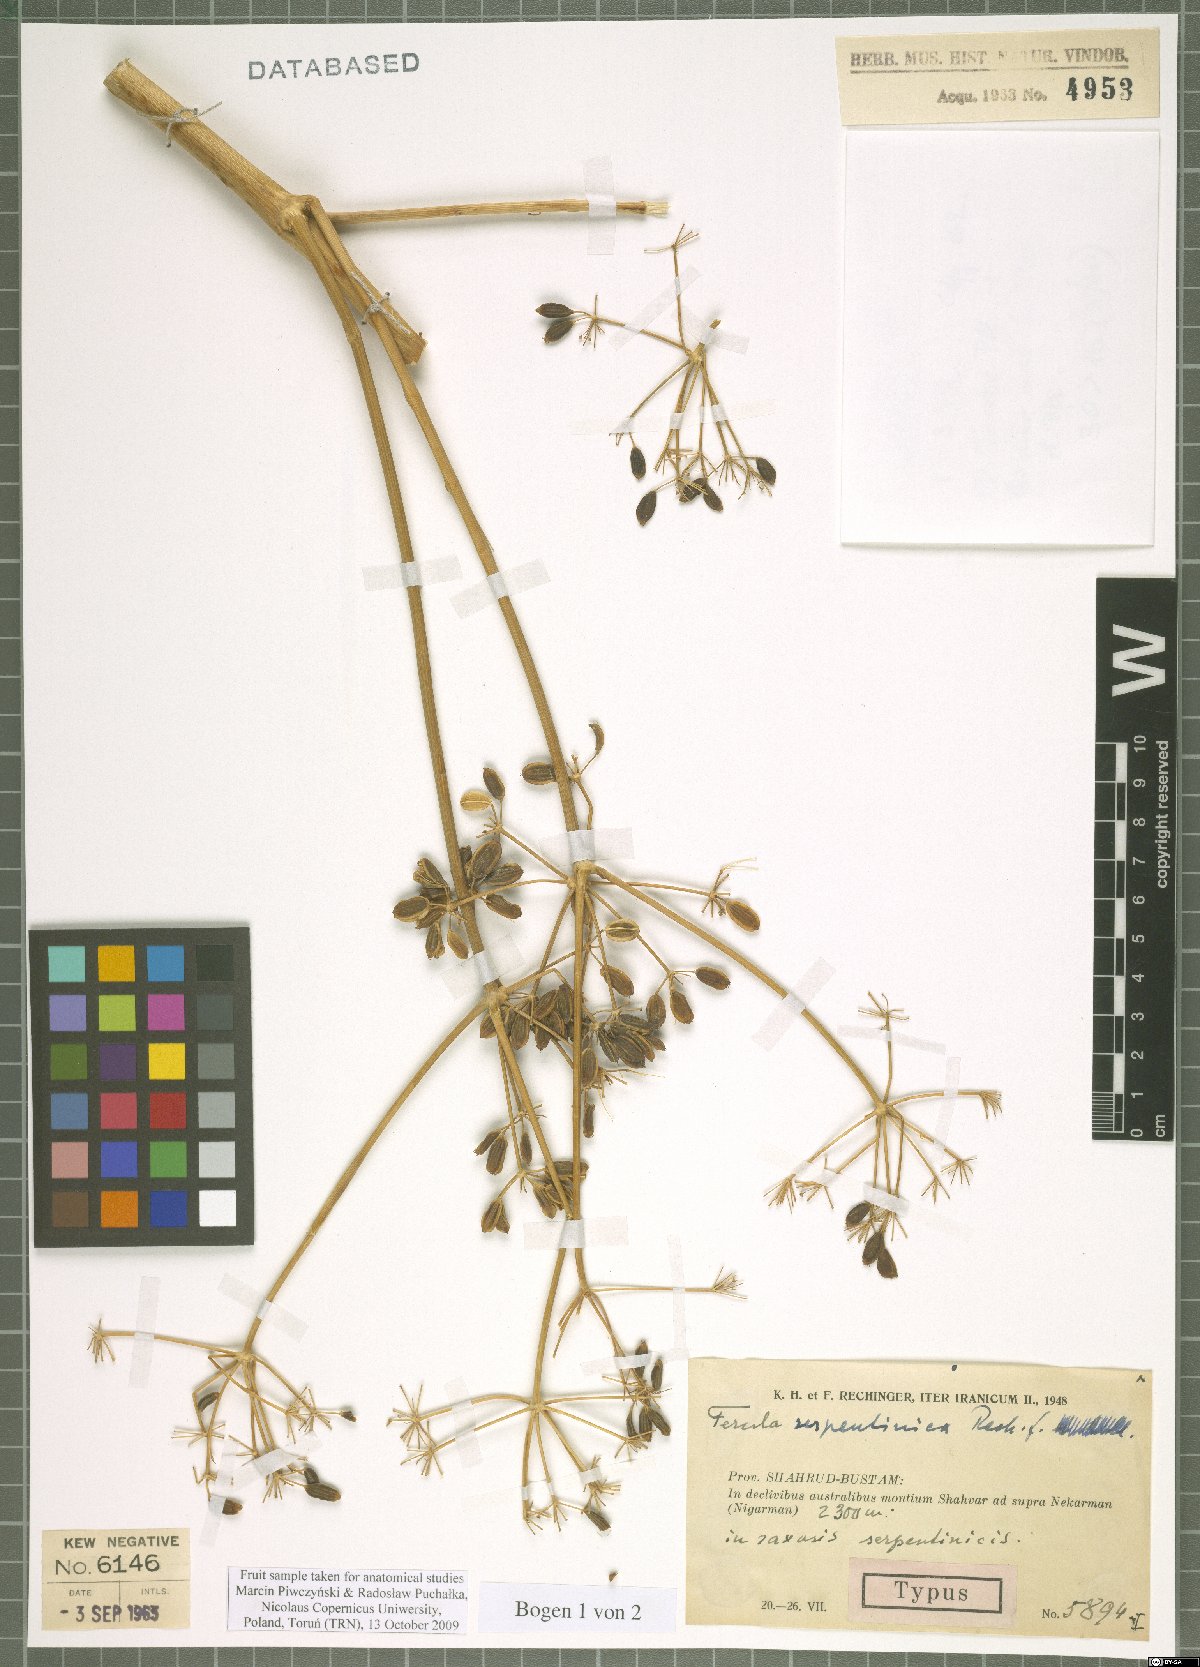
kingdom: Plantae
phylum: Tracheophyta
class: Magnoliopsida
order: Apiales
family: Apiaceae
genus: Ferula
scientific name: Ferula serpentinica
